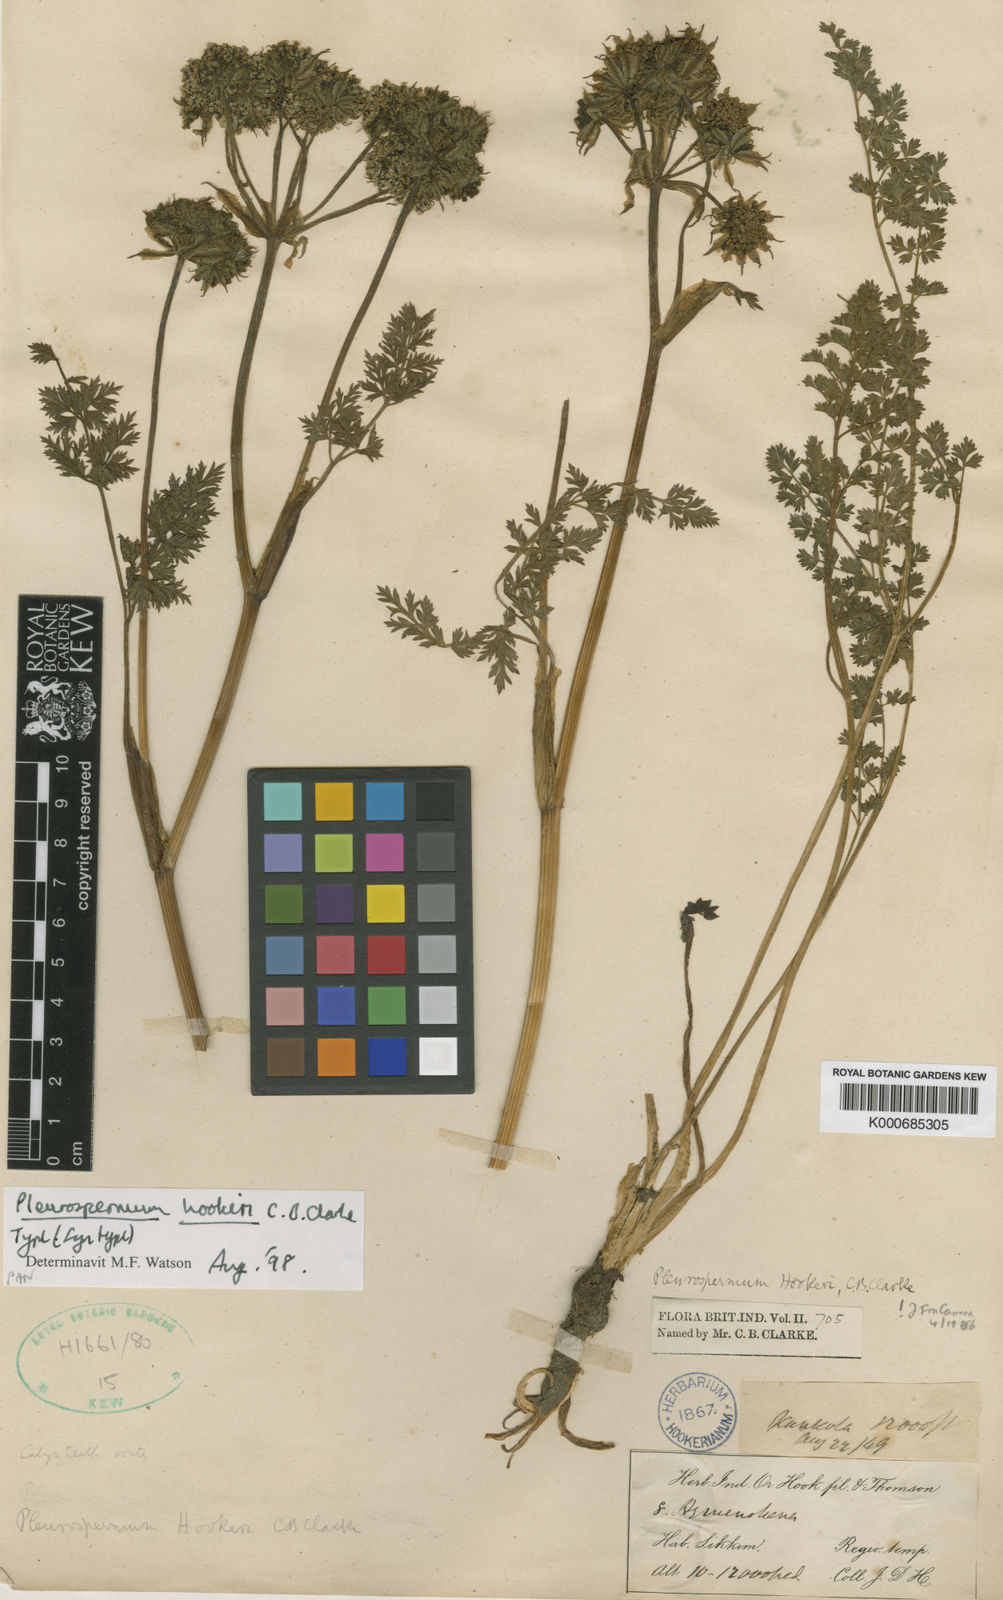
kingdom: Plantae
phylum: Tracheophyta
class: Magnoliopsida
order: Apiales
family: Apiaceae
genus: Pleurospermum
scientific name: Pleurospermum hookeri
